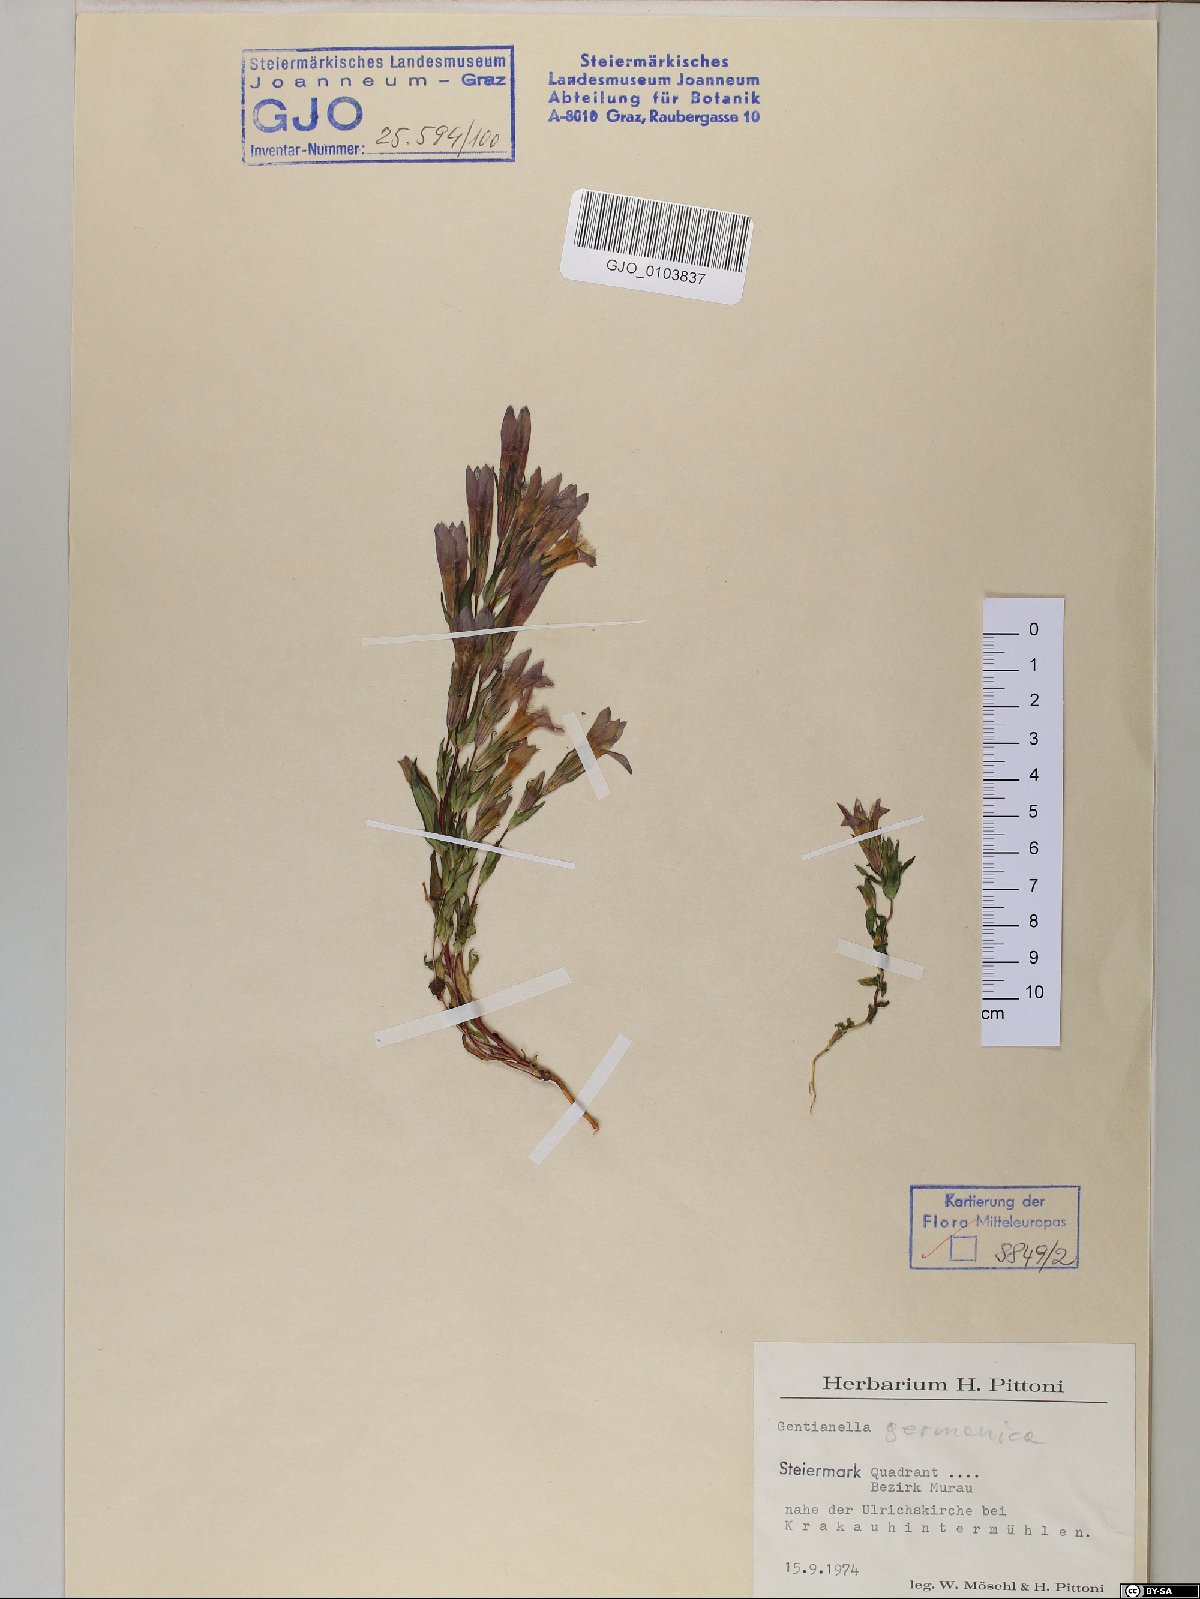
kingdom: Plantae
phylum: Tracheophyta
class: Magnoliopsida
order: Gentianales
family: Gentianaceae
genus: Gentianella
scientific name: Gentianella germanica
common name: Chiltern-gentian
